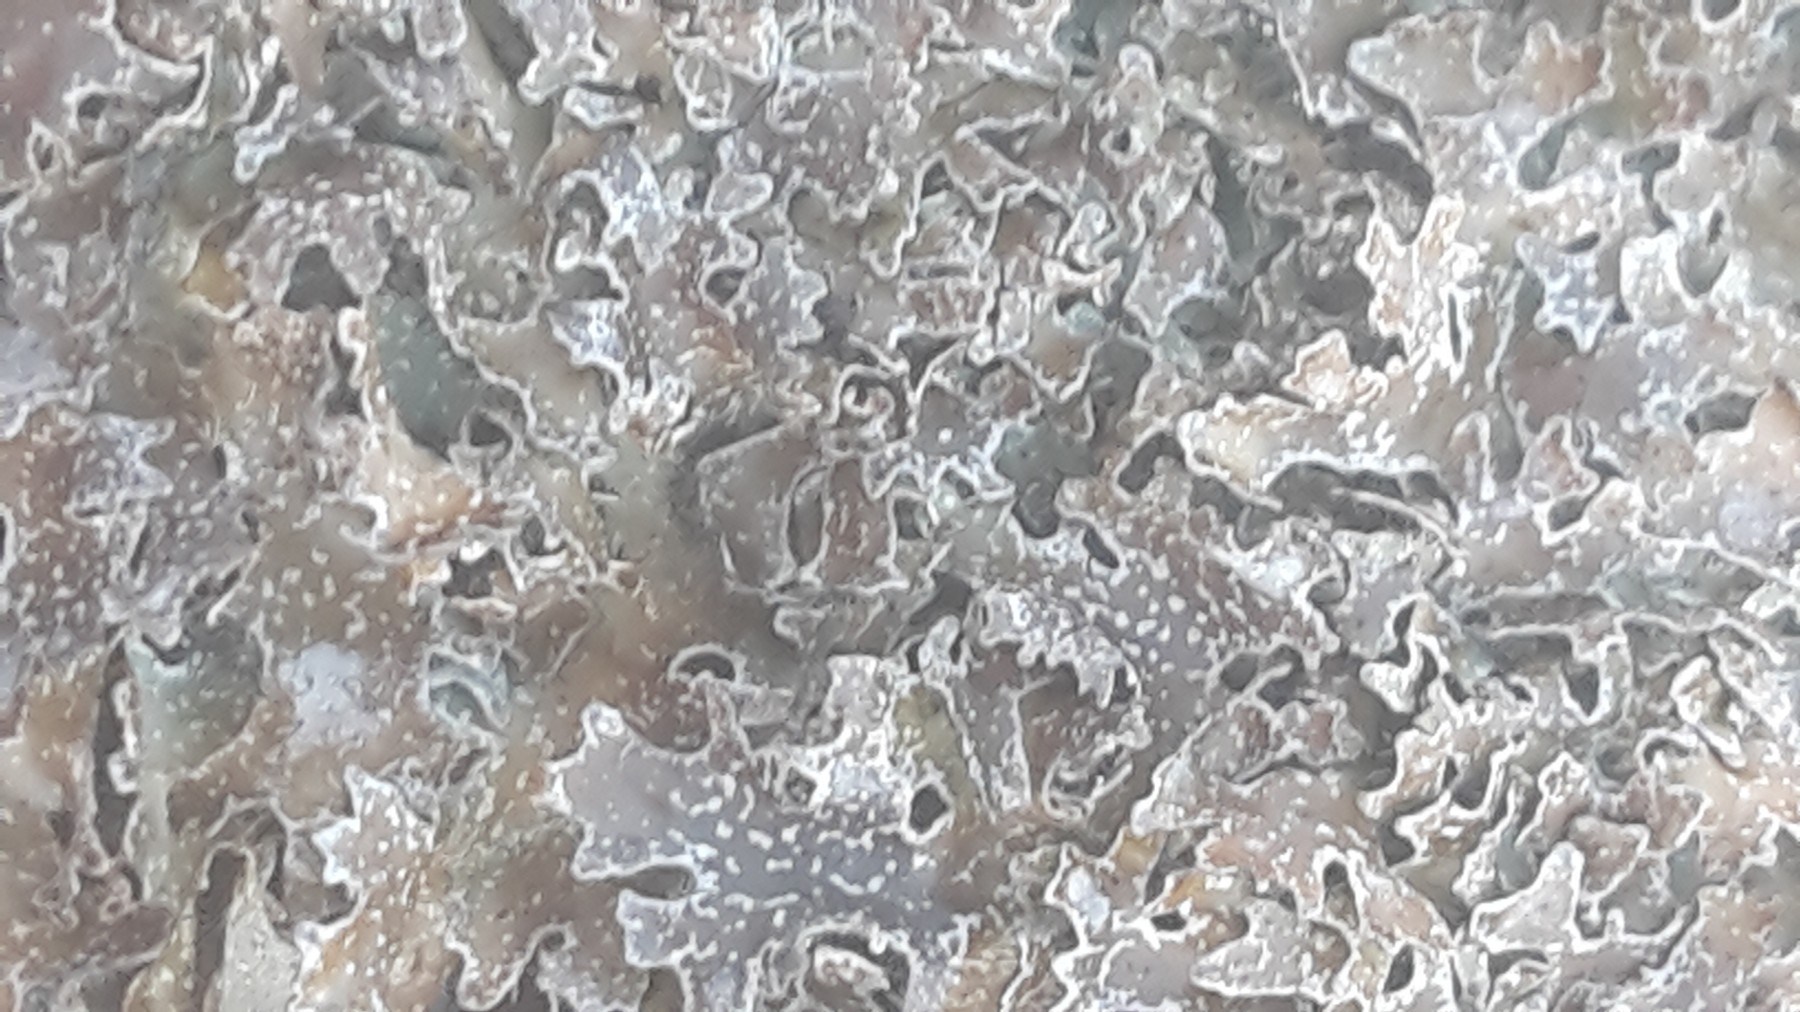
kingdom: Fungi
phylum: Ascomycota
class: Lecanoromycetes
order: Lecanorales
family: Parmeliaceae
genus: Parmelia
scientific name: Parmelia omphalodes
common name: bronze-skållav
